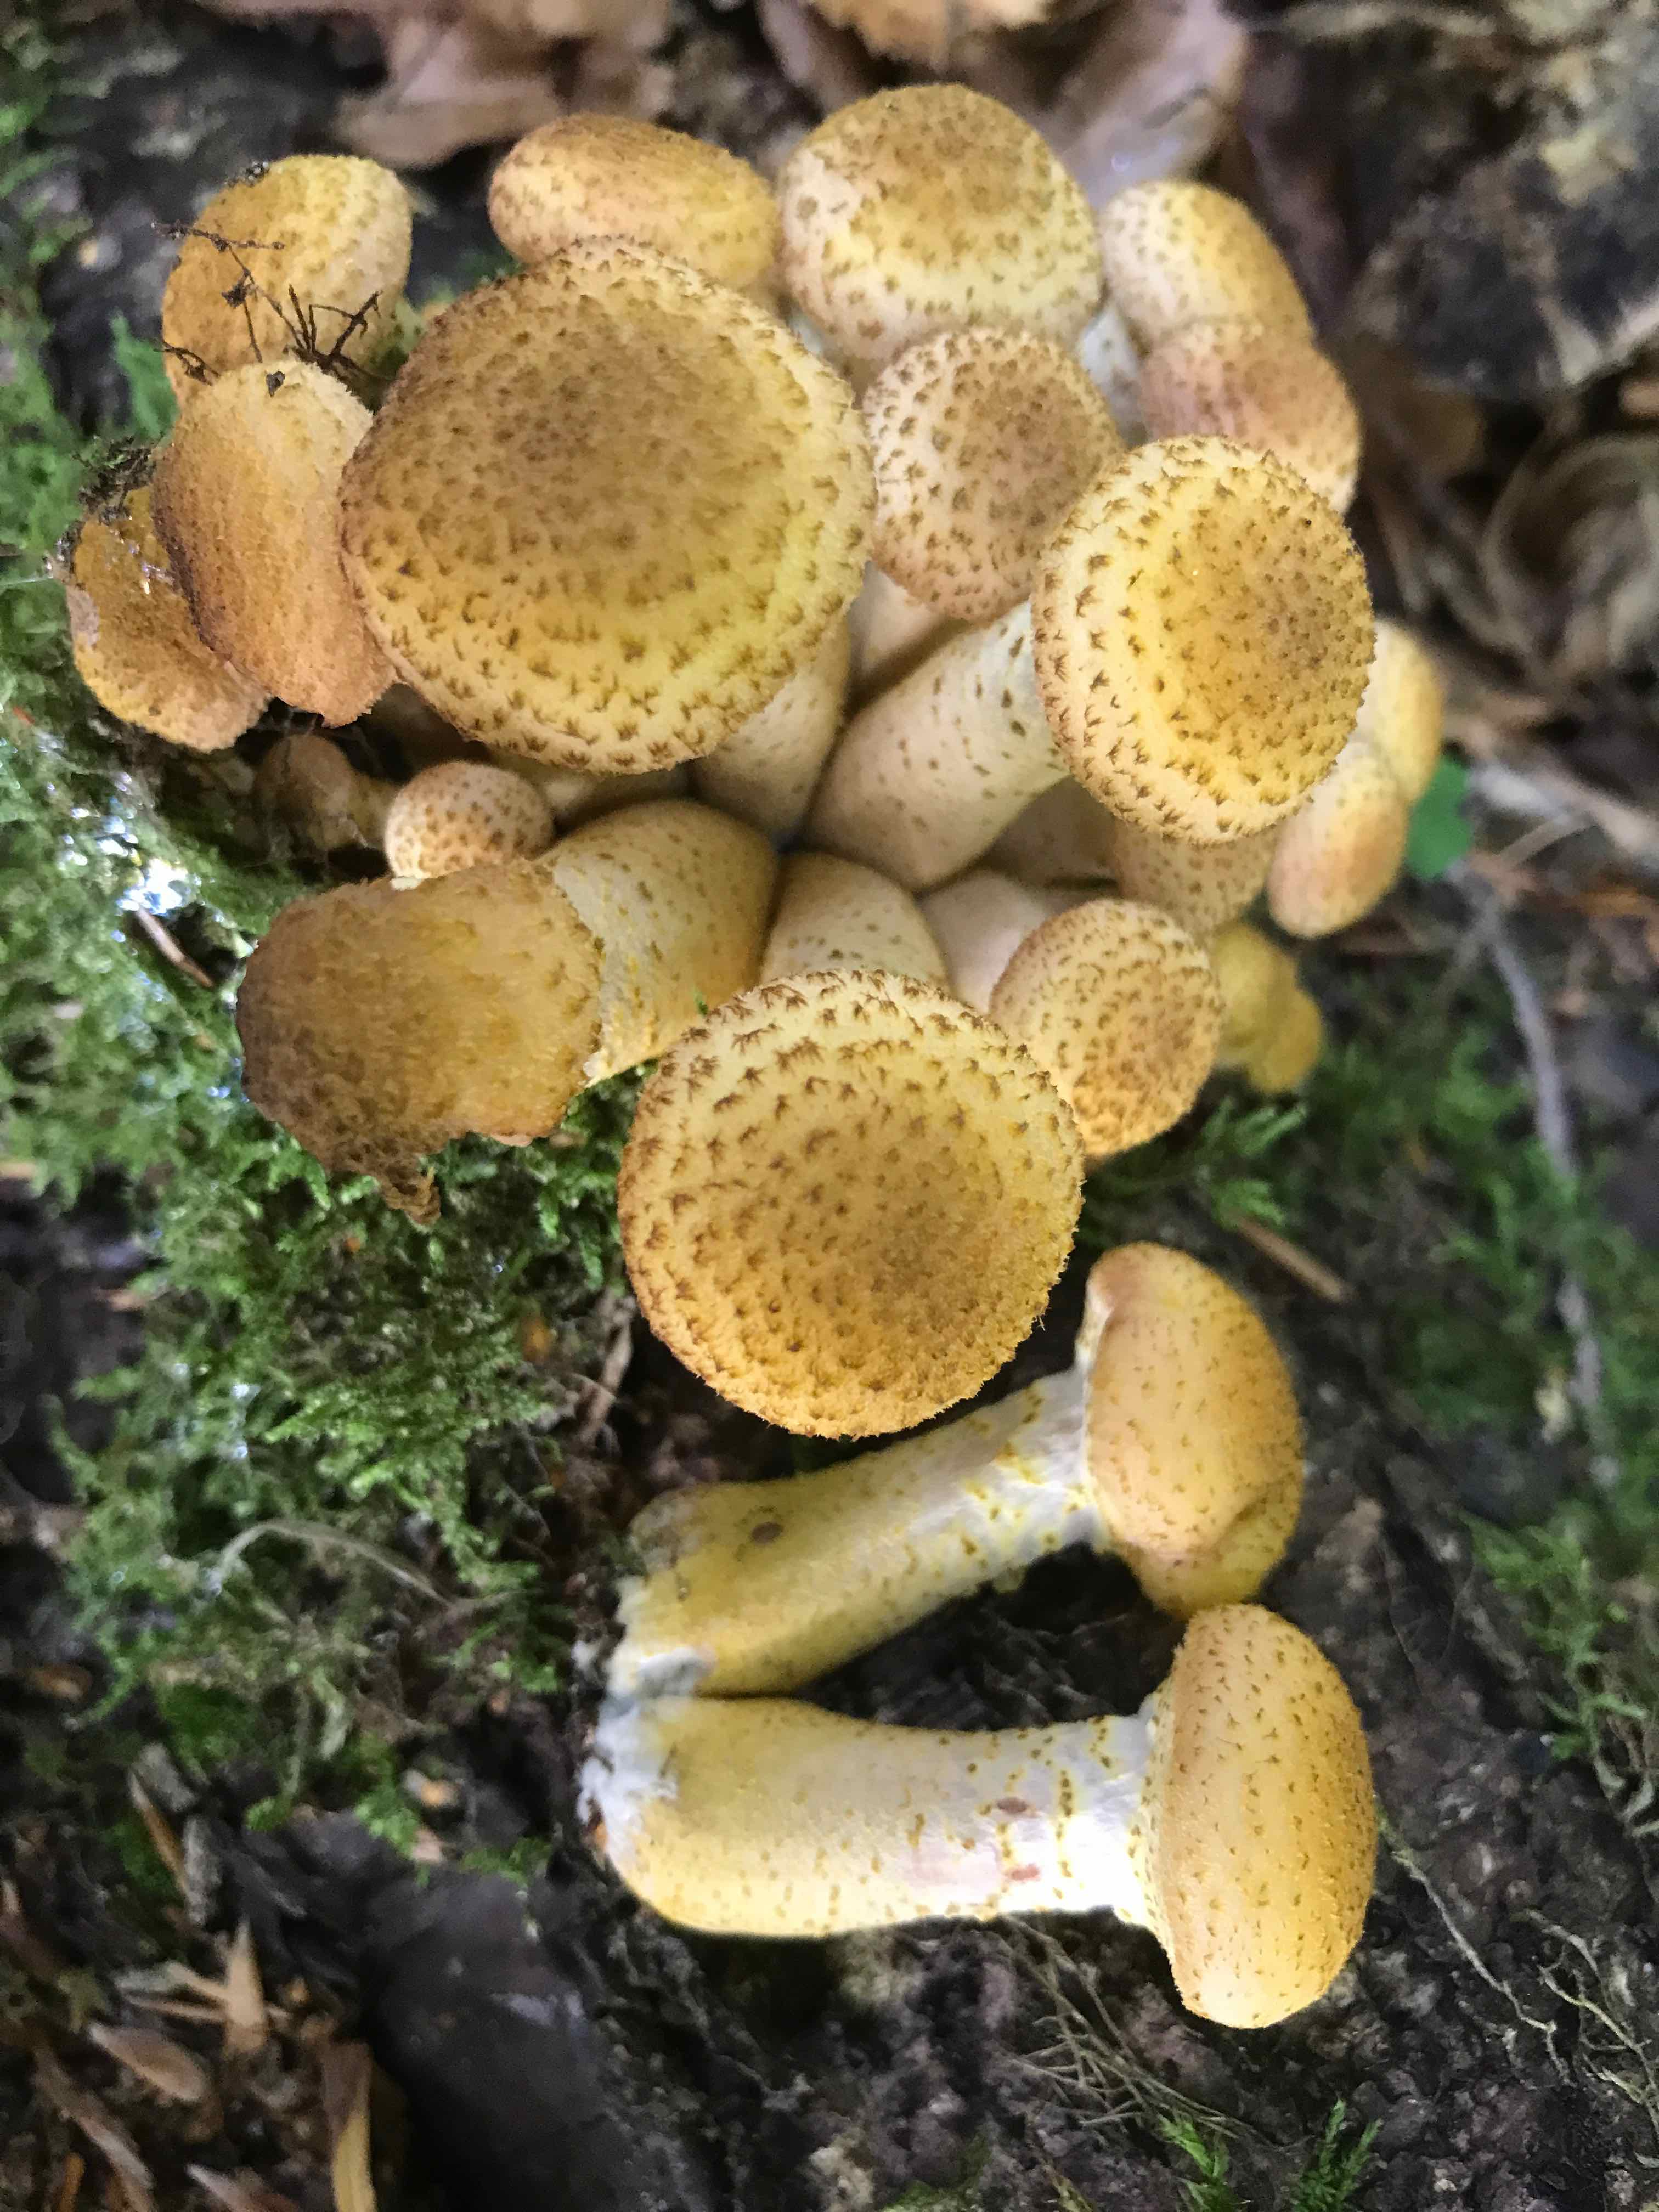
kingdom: Fungi
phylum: Basidiomycota
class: Agaricomycetes
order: Agaricales
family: Physalacriaceae
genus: Armillaria
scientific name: Armillaria lutea
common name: køllestokket honningsvamp
